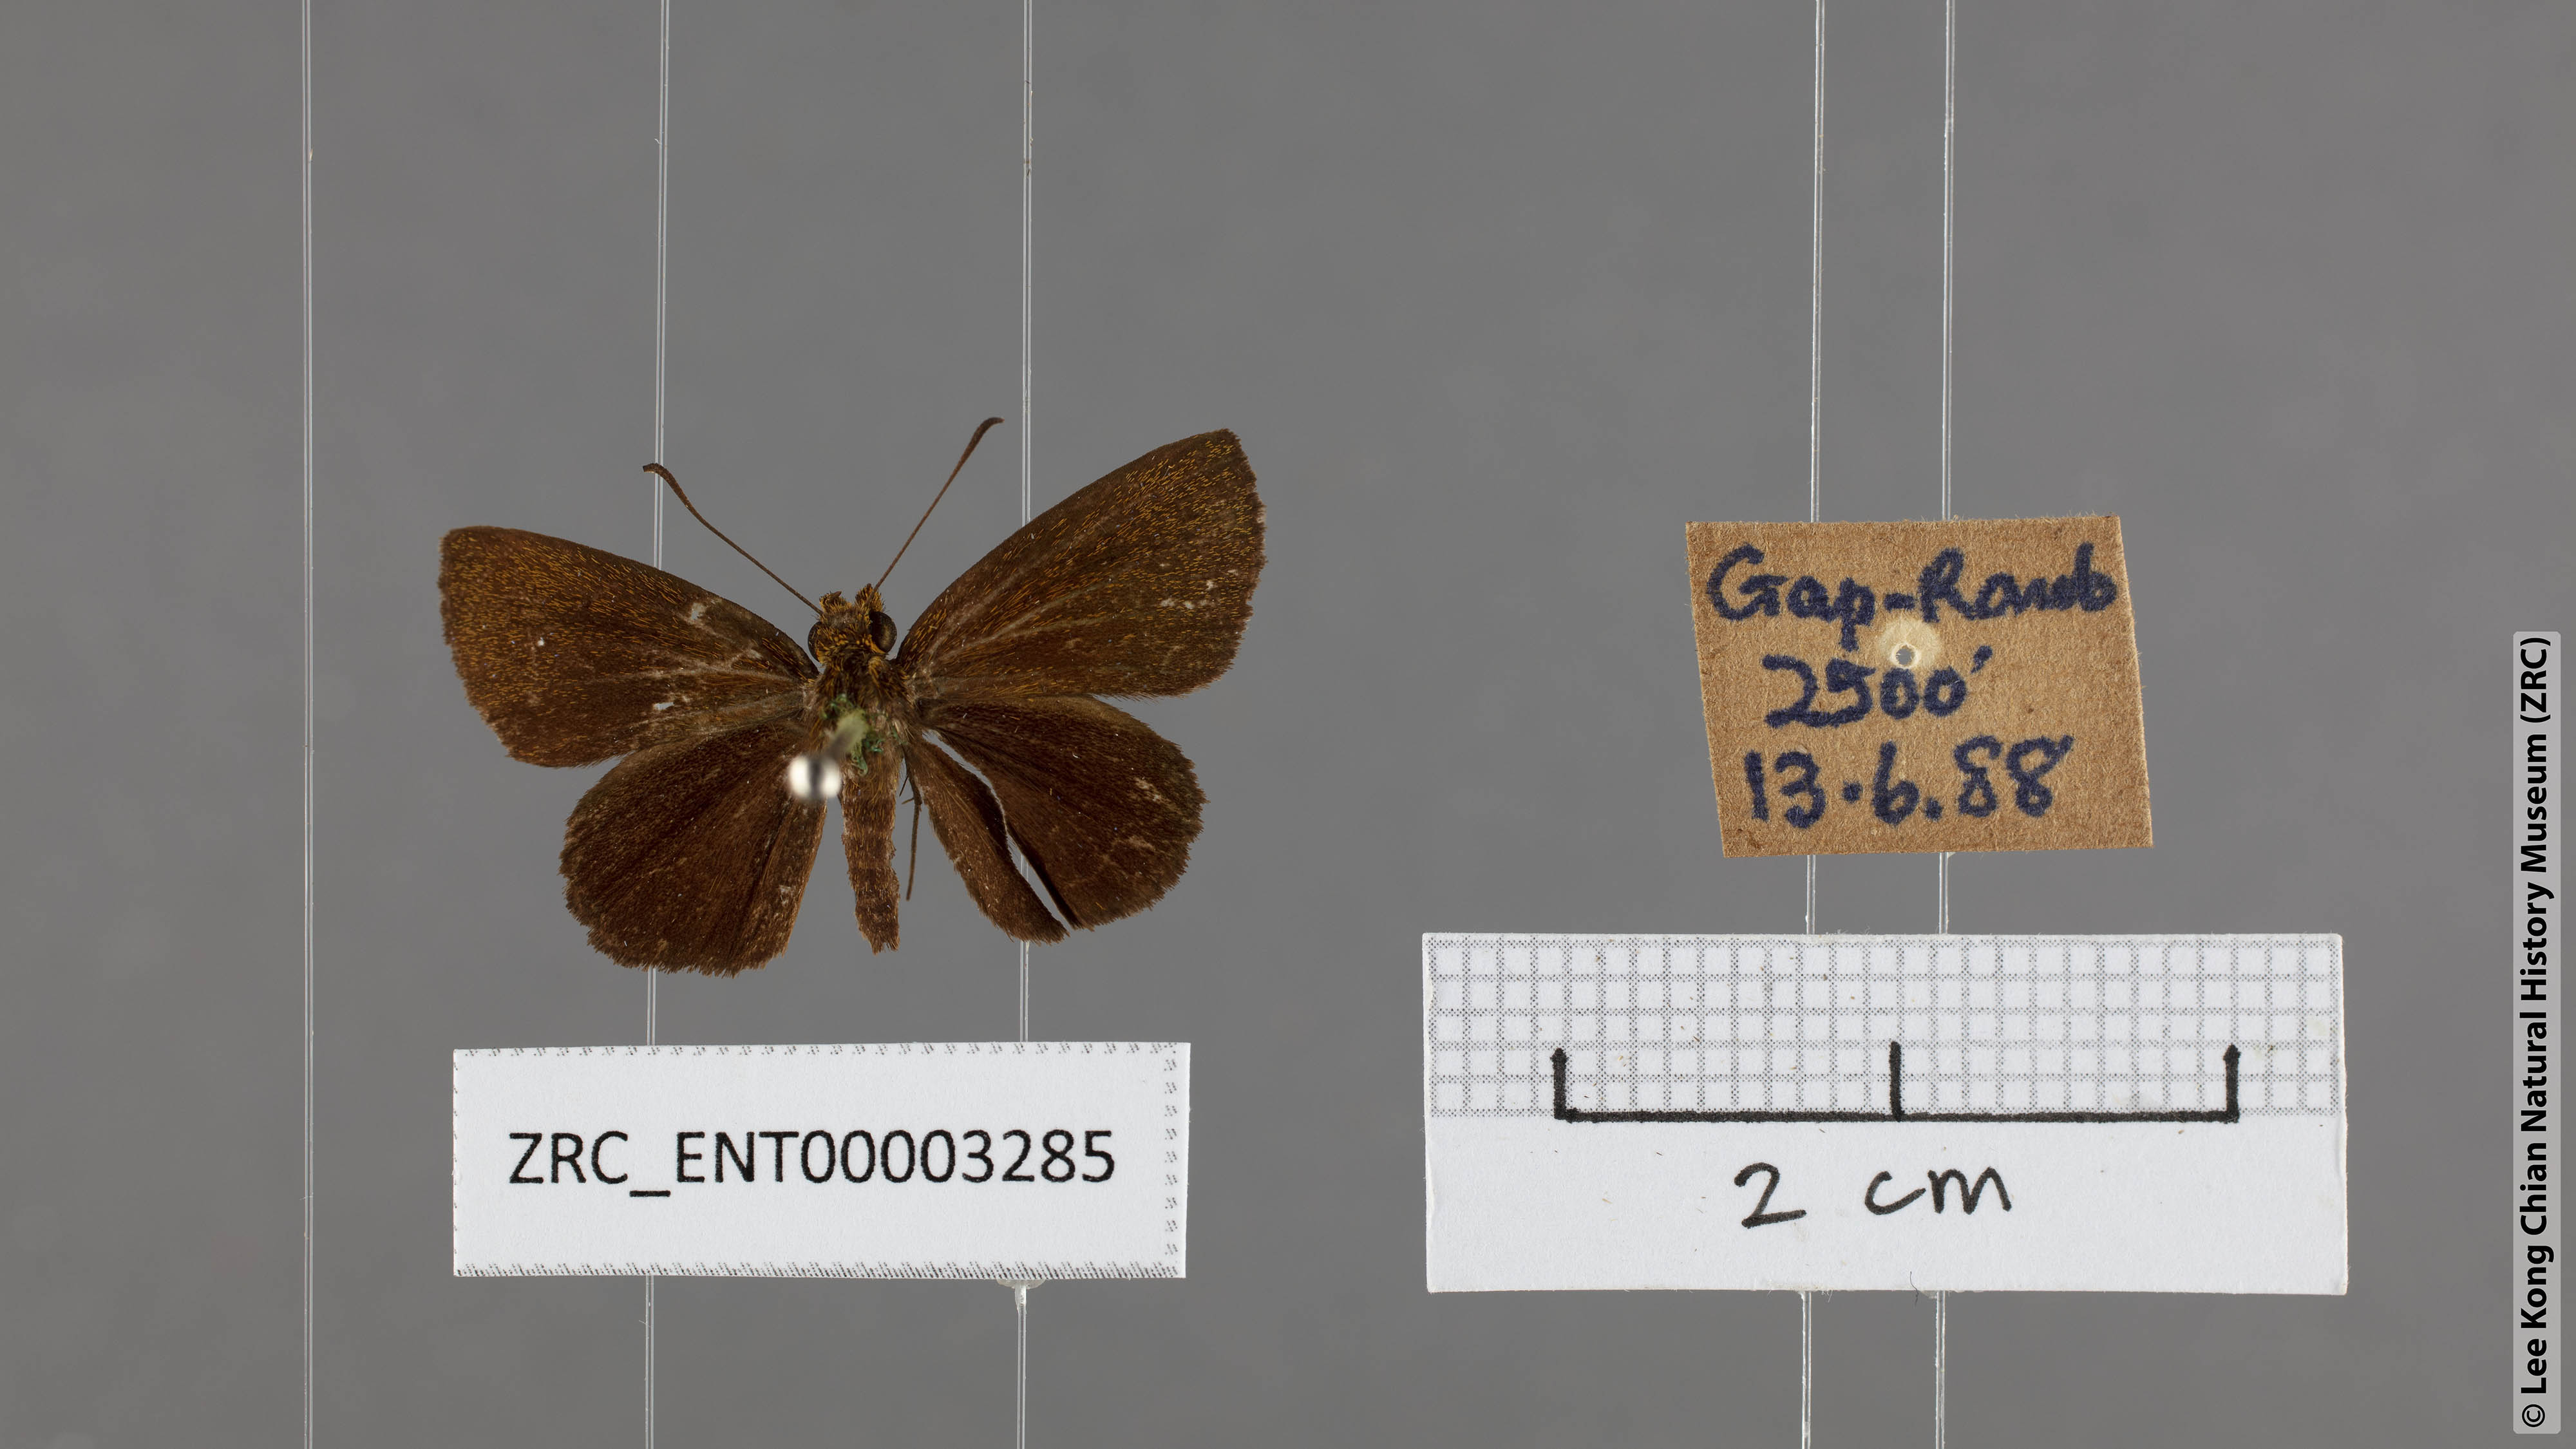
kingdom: Animalia
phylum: Arthropoda
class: Insecta
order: Lepidoptera
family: Hesperiidae
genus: Iambrix
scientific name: Iambrix stellifer
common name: Starry bob
